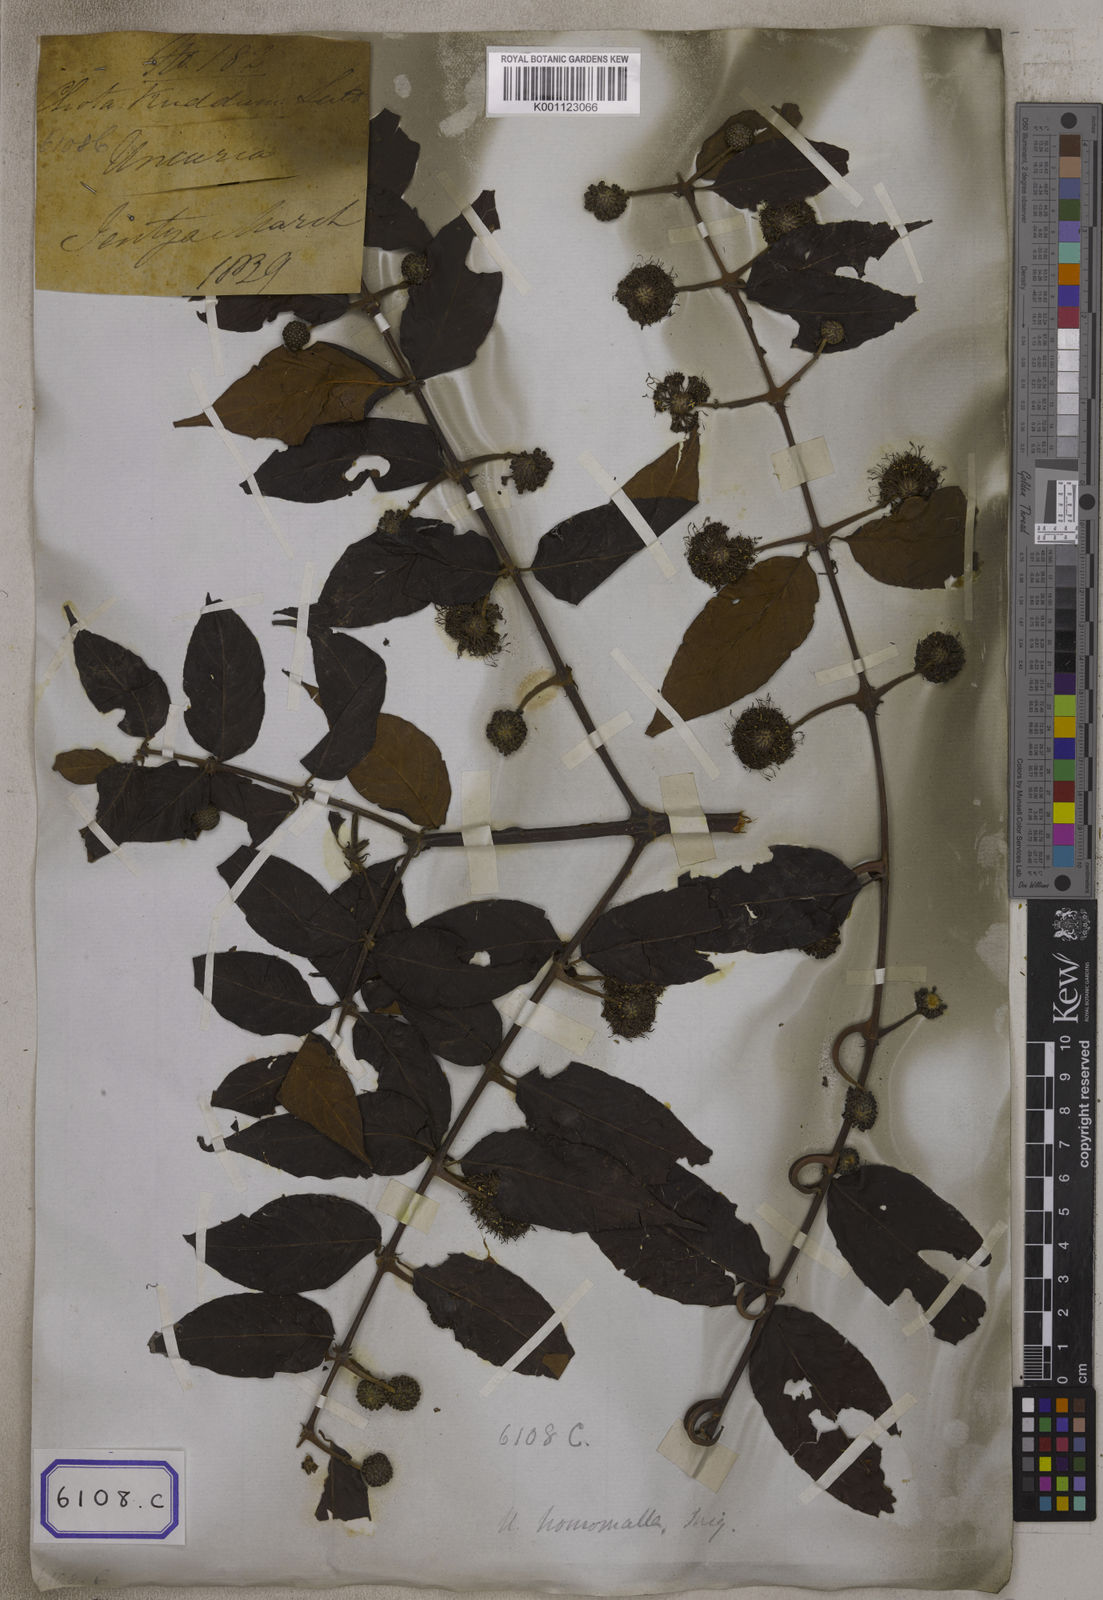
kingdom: Plantae
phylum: Tracheophyta
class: Magnoliopsida
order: Gentianales
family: Rubiaceae
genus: Uncaria
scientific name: Uncaria
